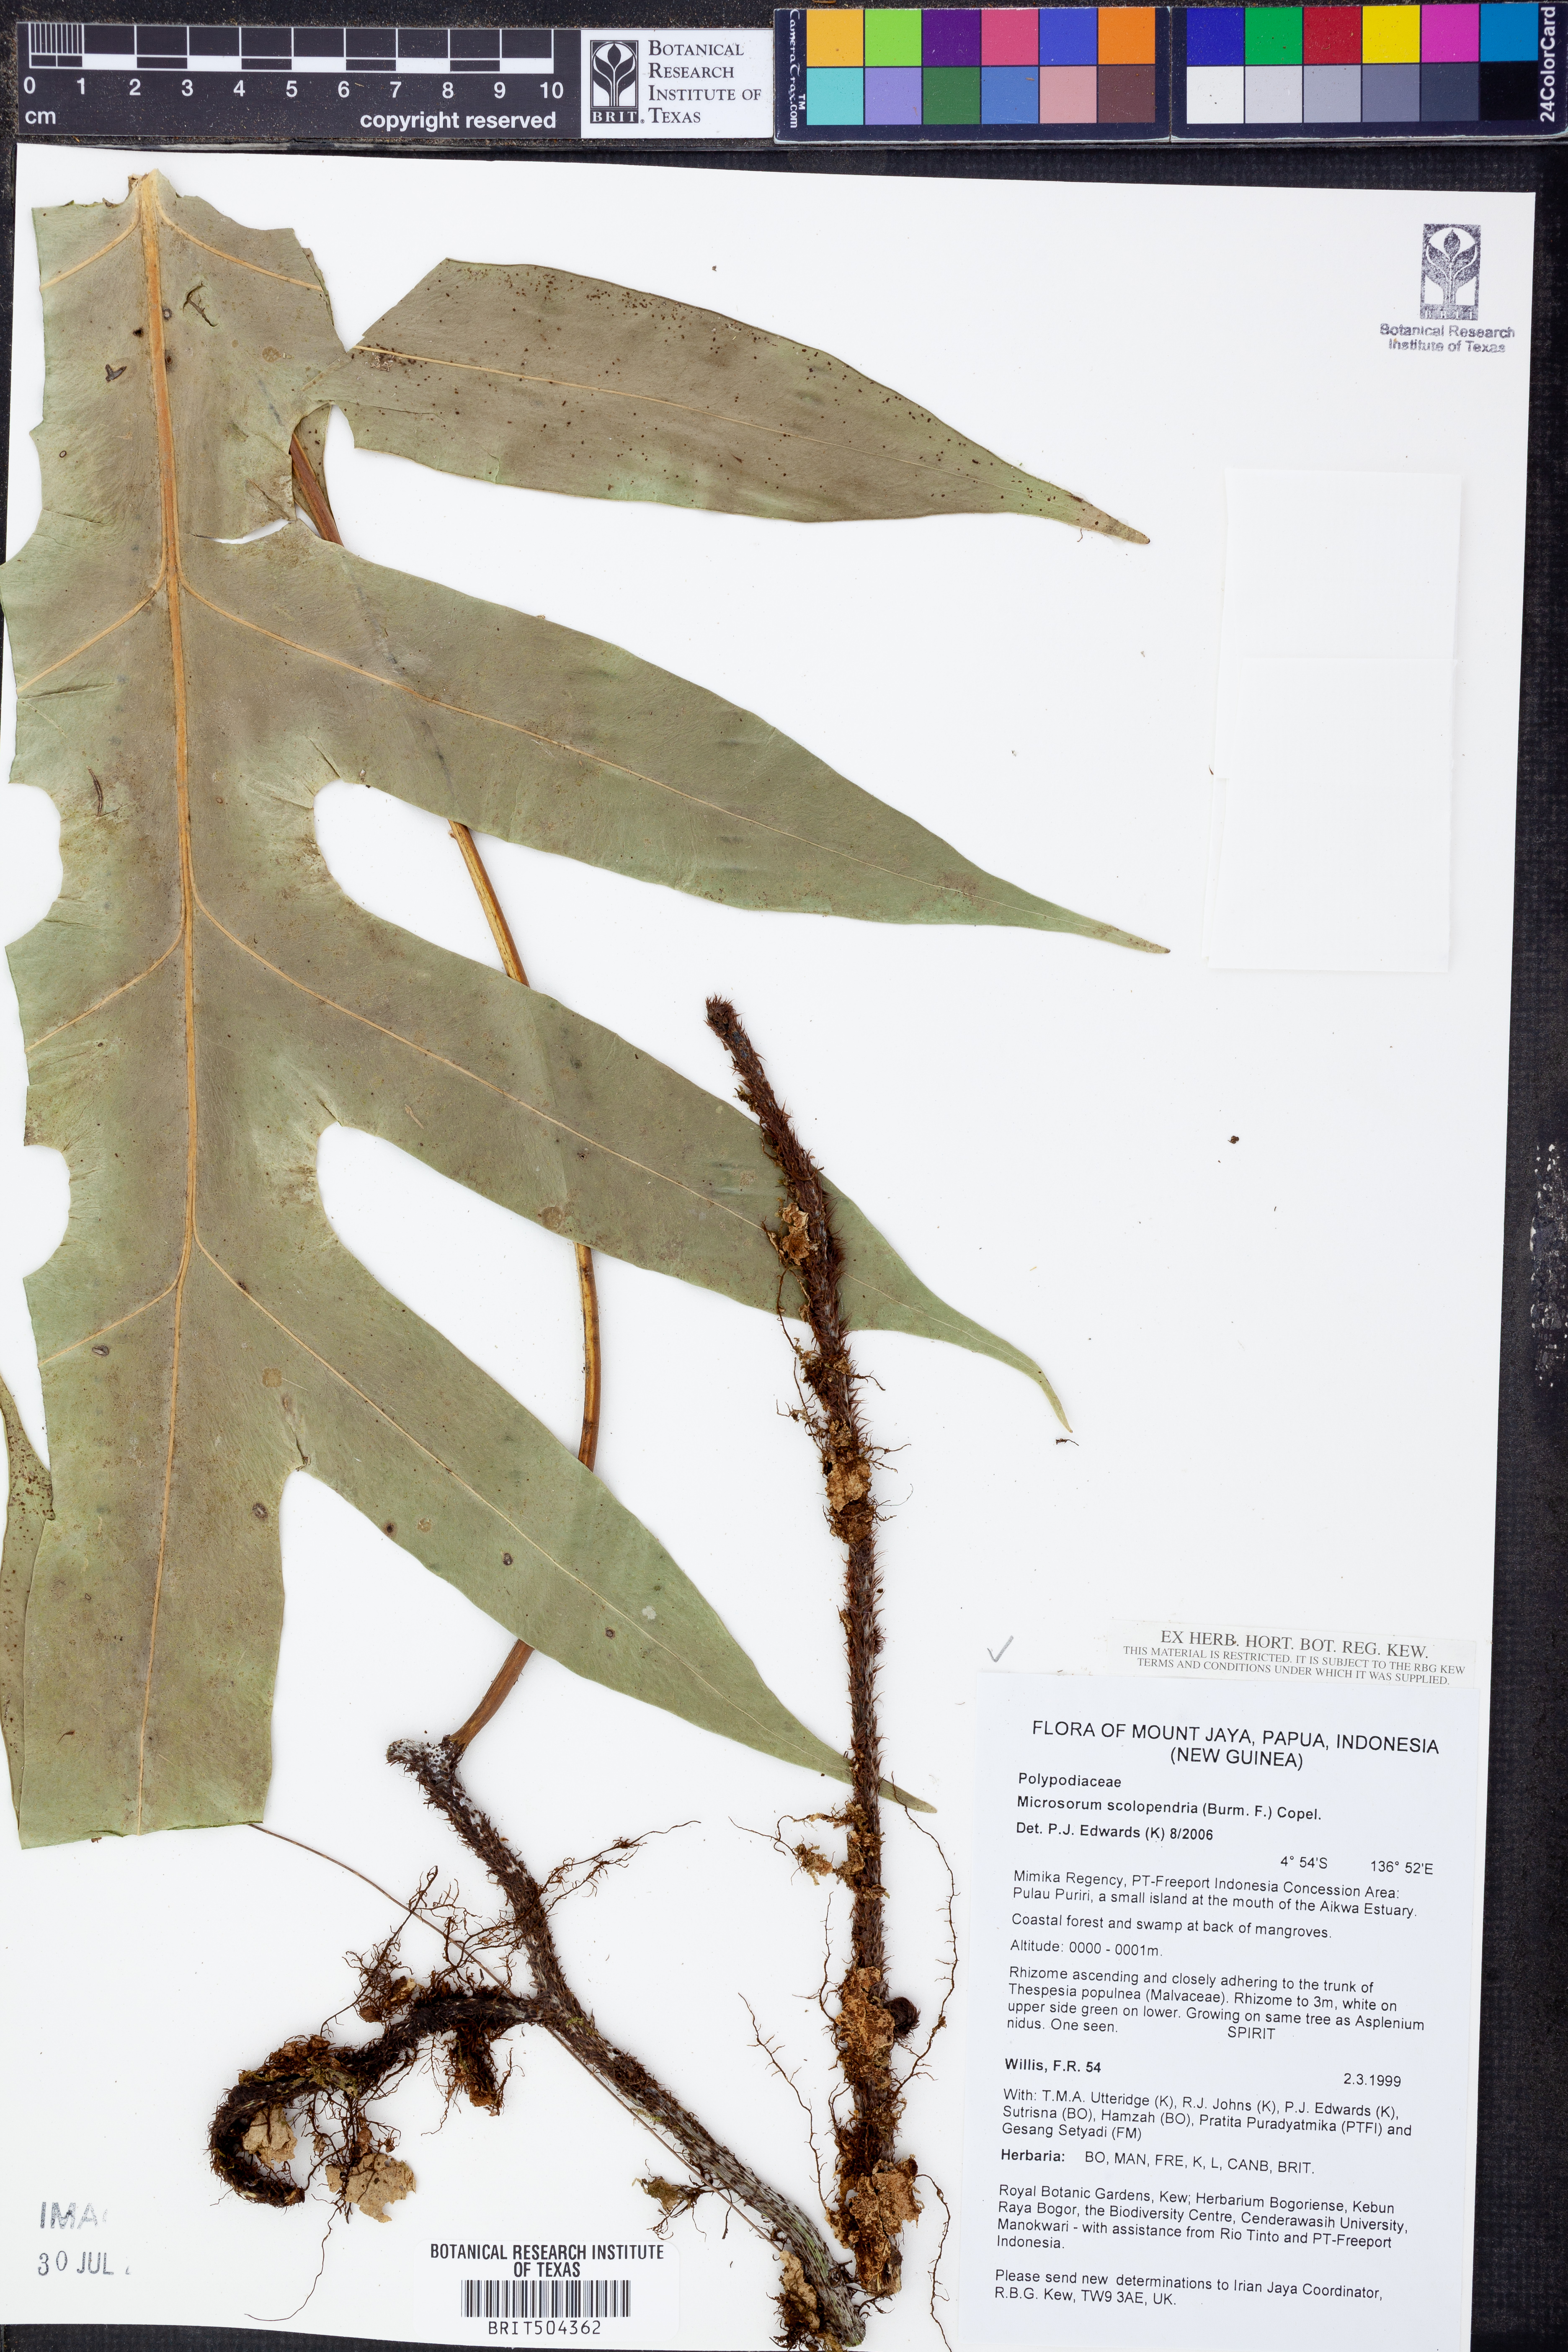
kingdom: Plantae
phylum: Tracheophyta
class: Polypodiopsida
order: Polypodiales
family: Polypodiaceae
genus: Microsorum
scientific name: Microsorum scolopendria
